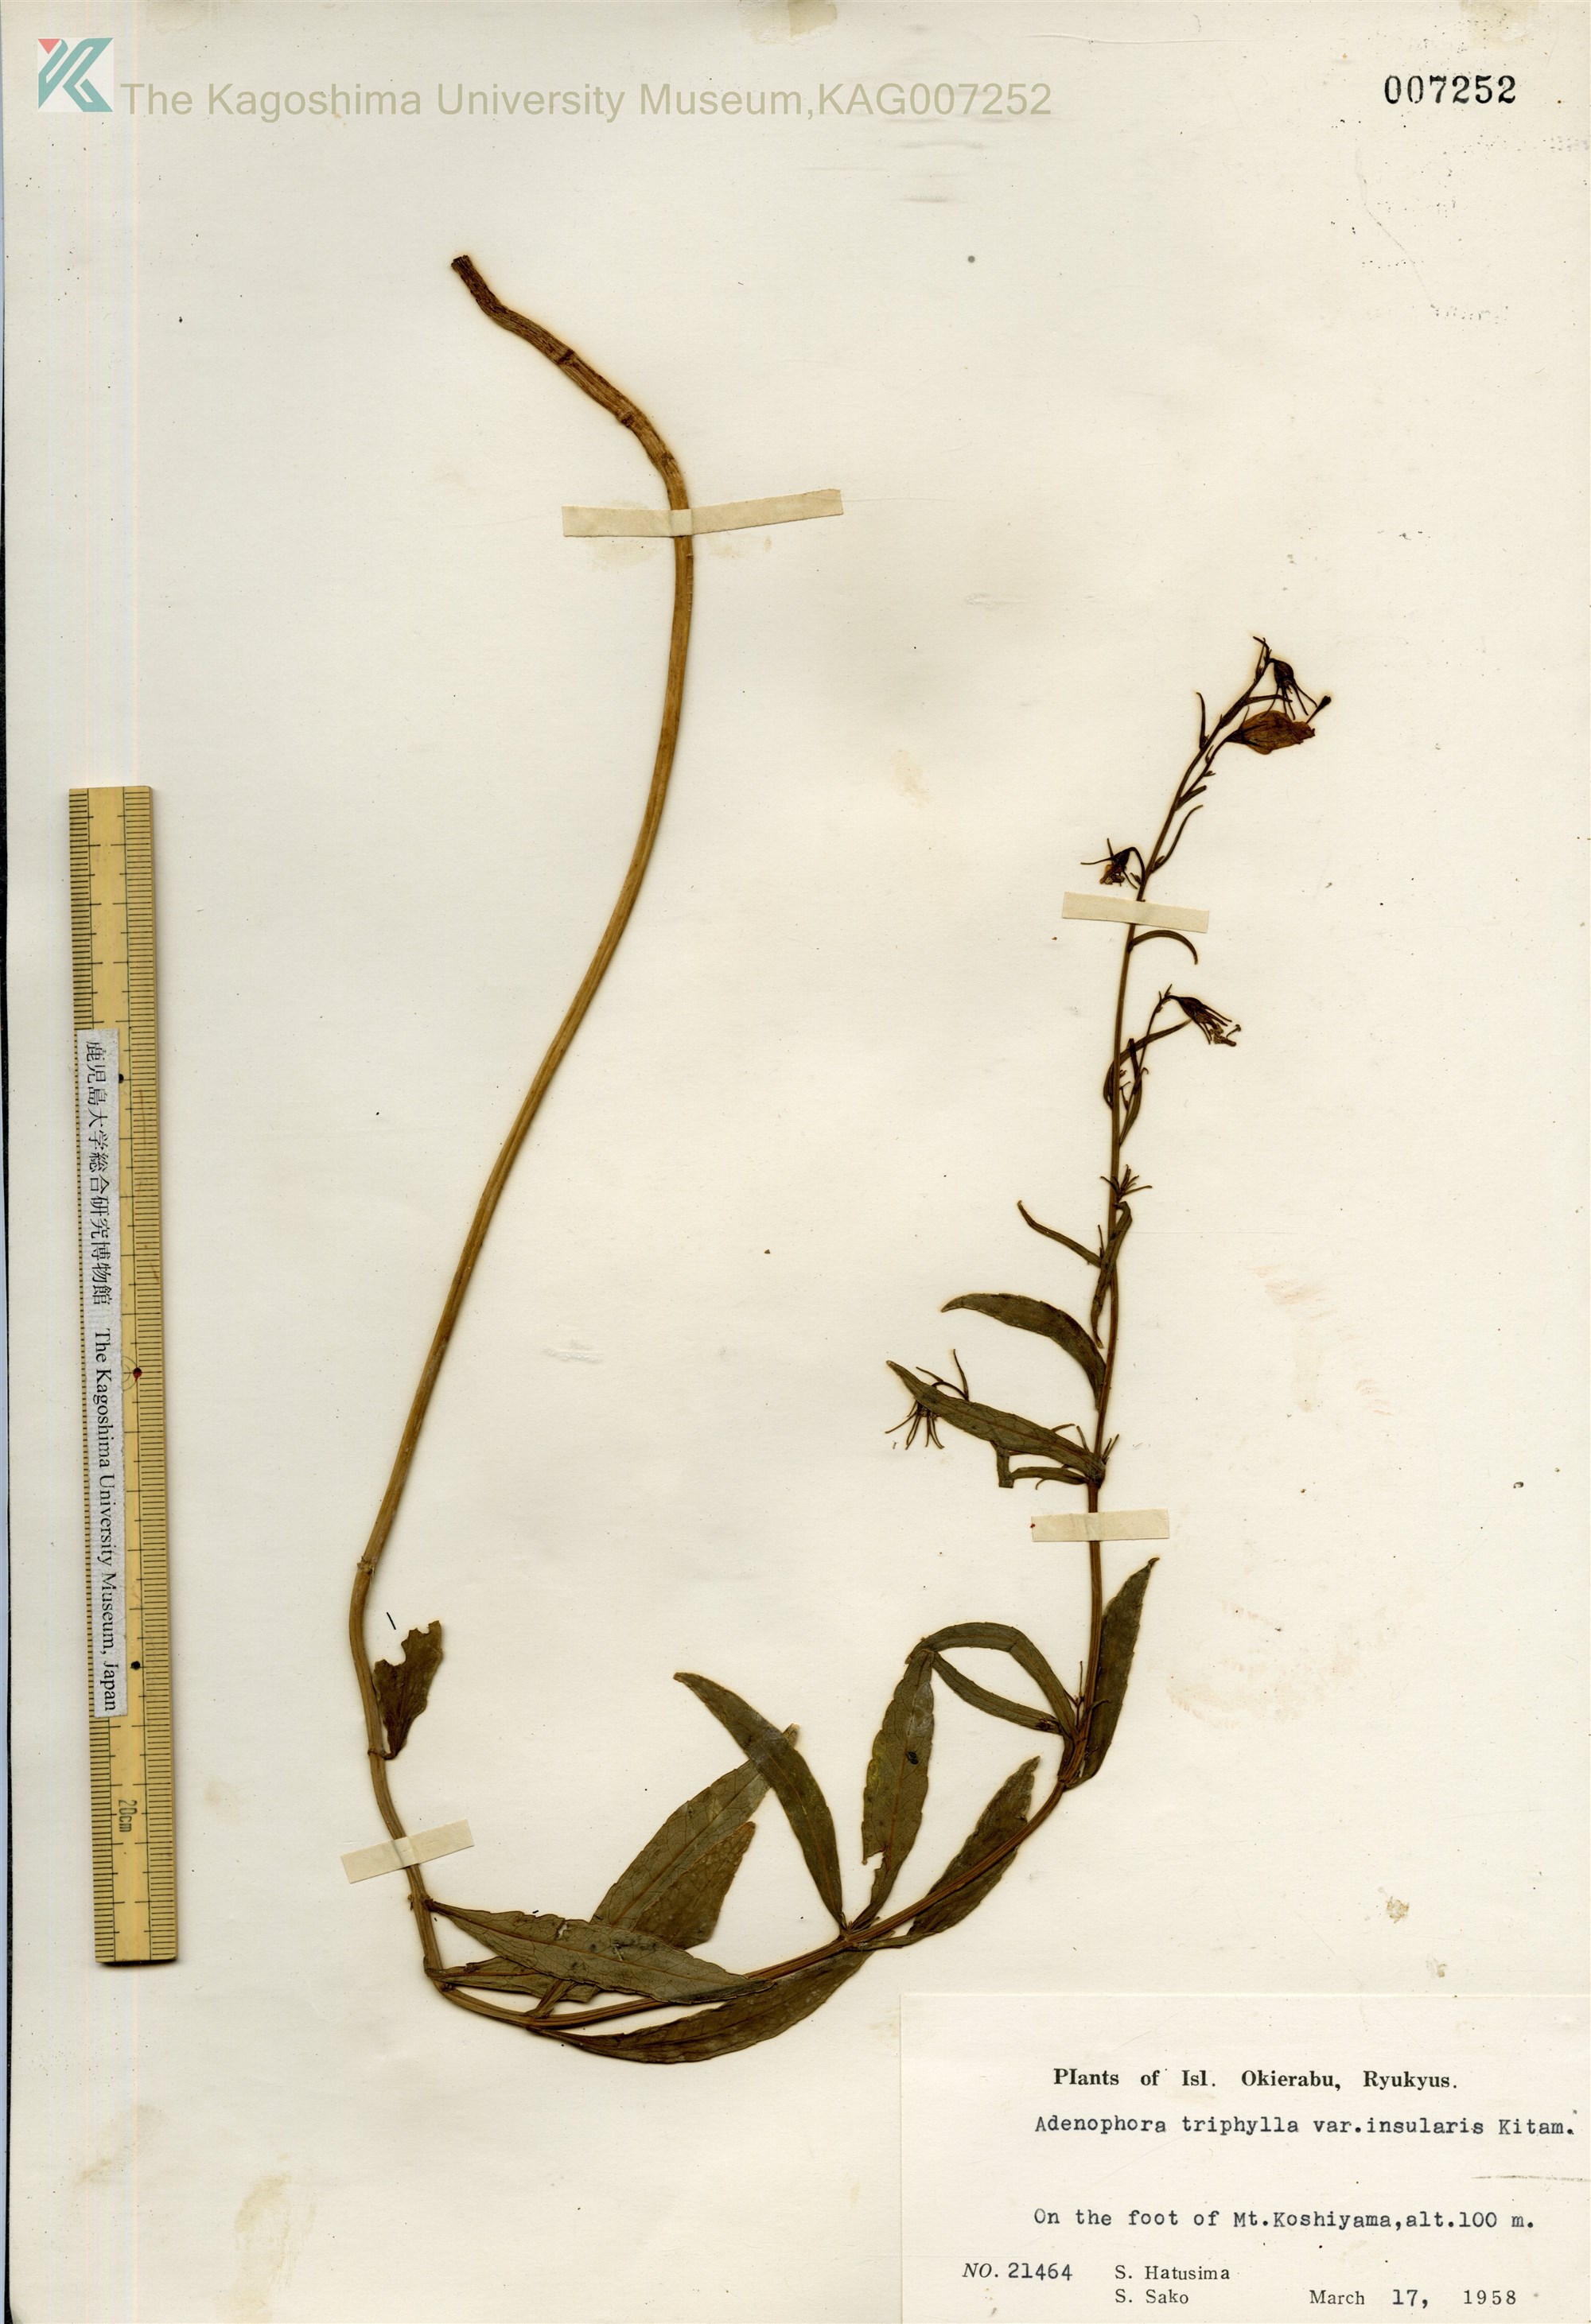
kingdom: Plantae
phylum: Tracheophyta
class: Magnoliopsida
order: Asterales
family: Campanulaceae
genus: Adenophora
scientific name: Adenophora tashiroi
